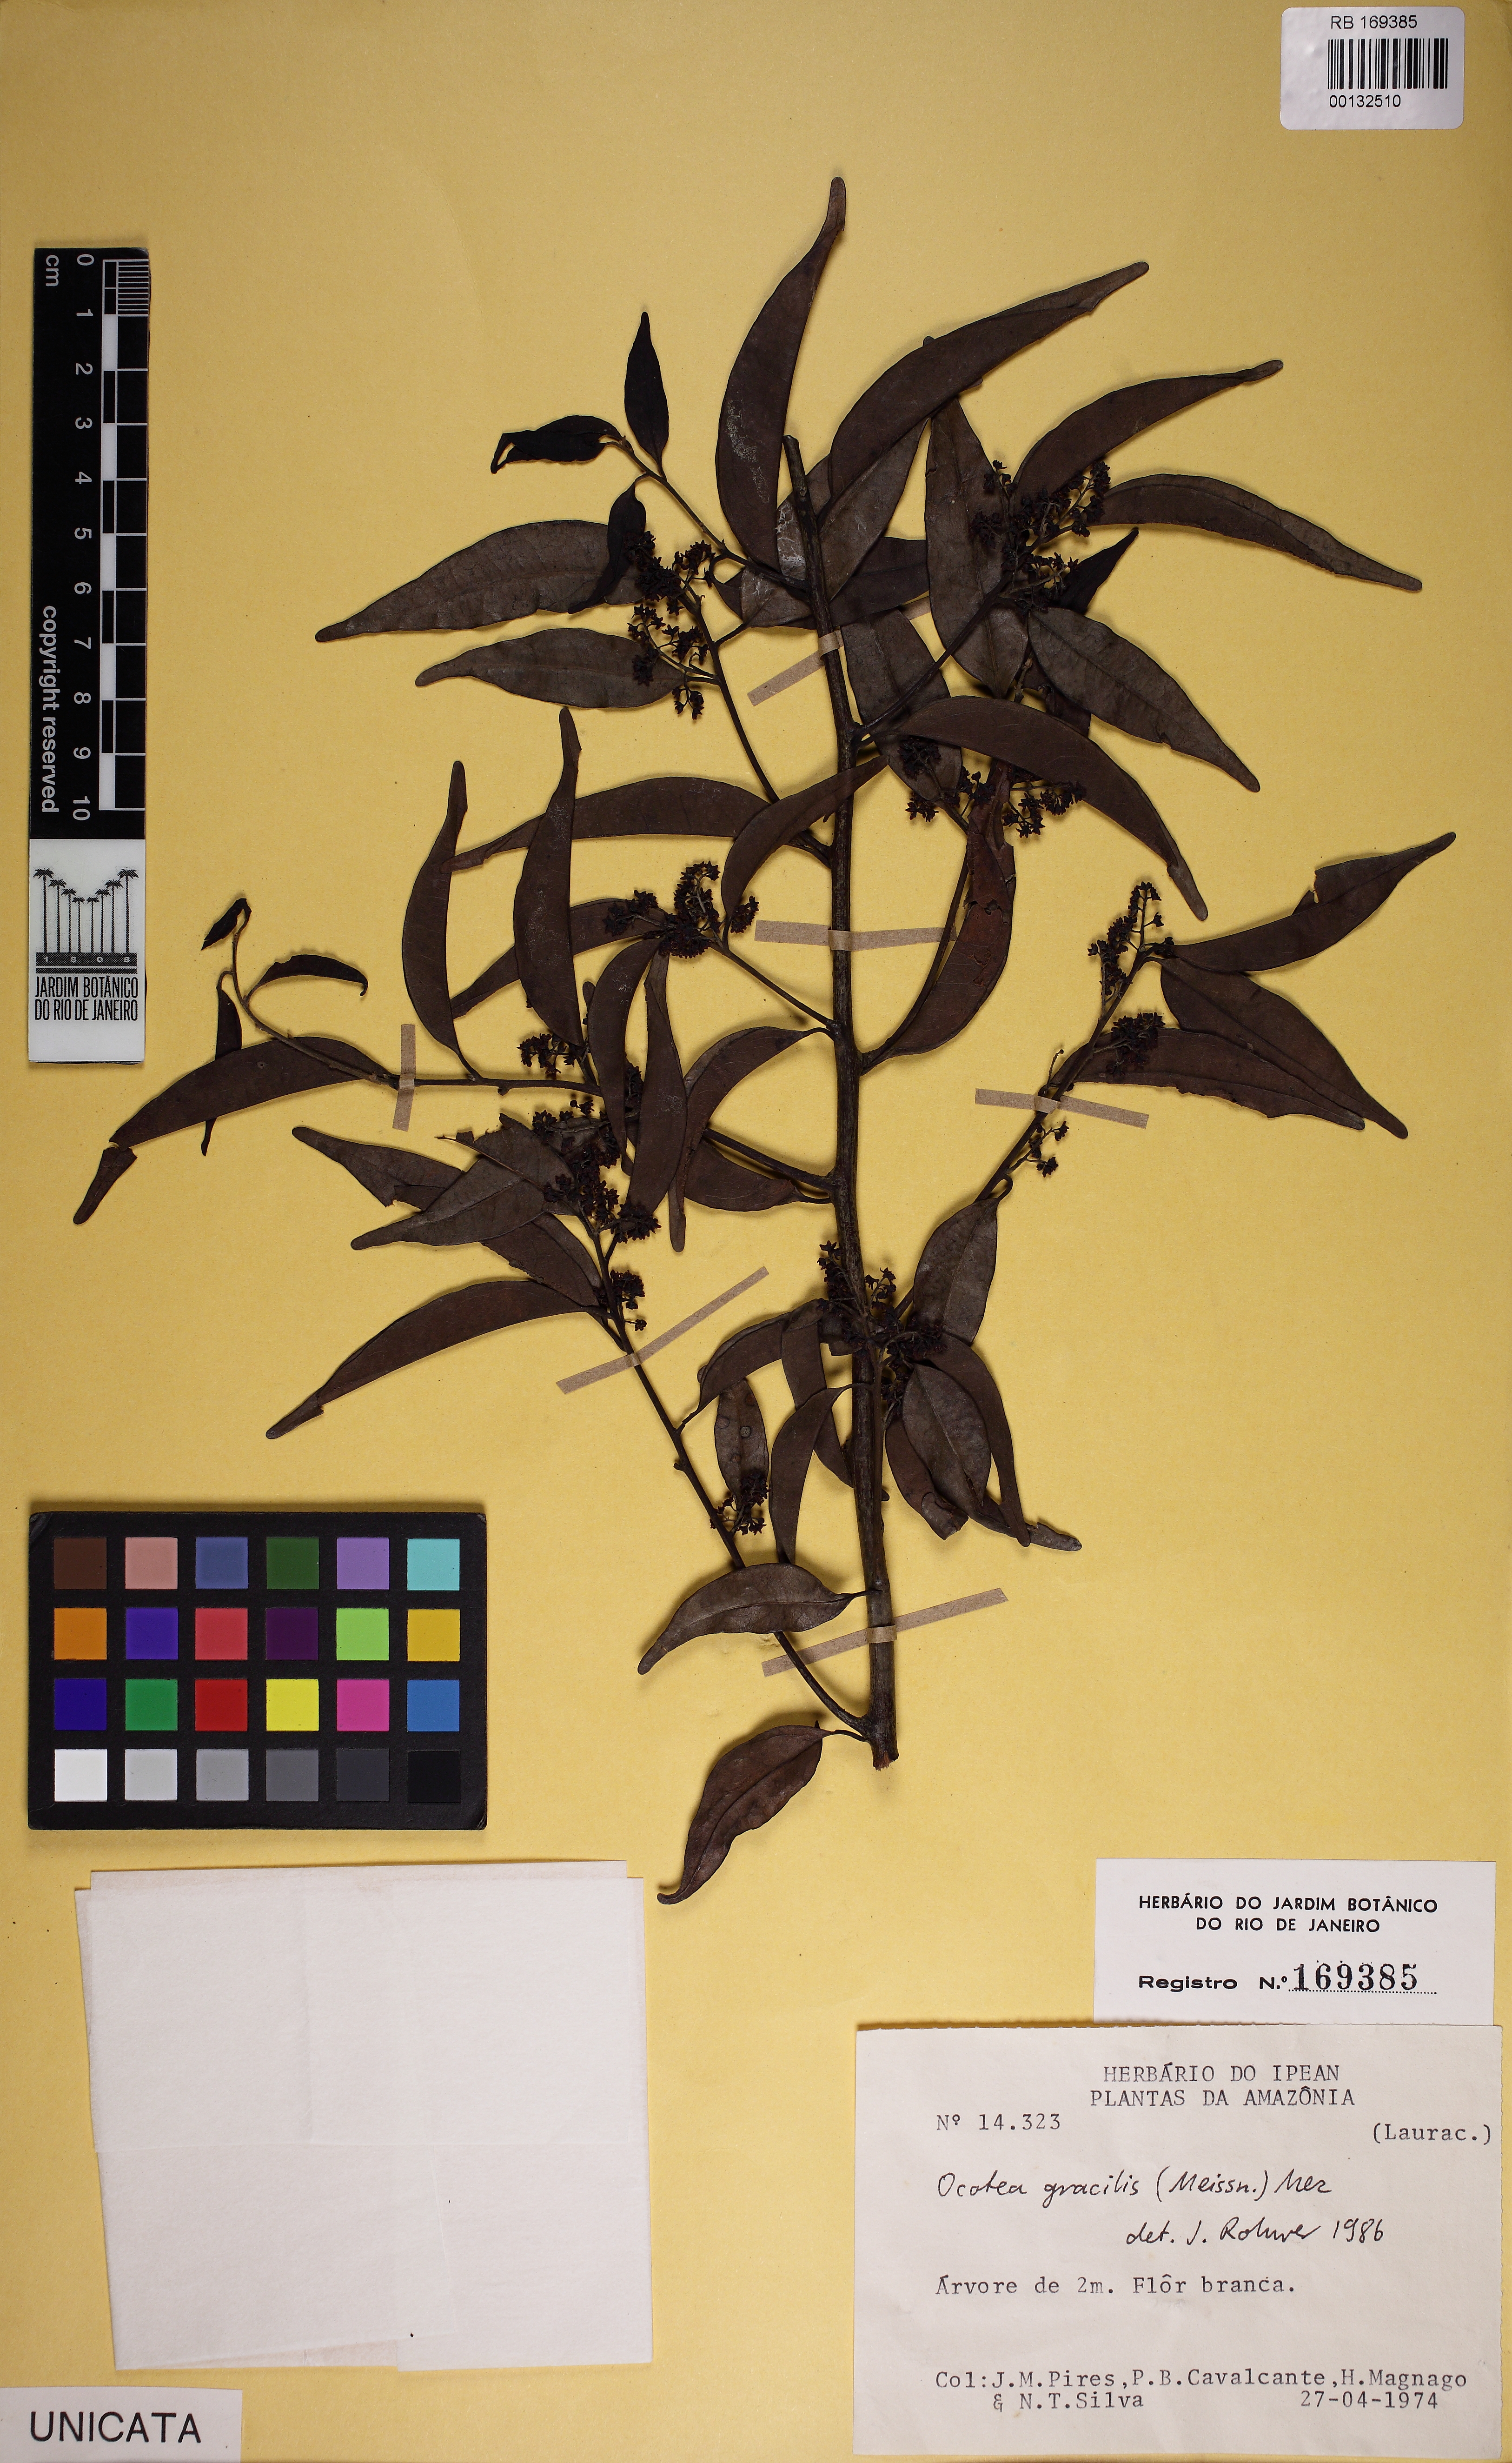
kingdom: Plantae
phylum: Tracheophyta
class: Magnoliopsida
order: Laurales
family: Lauraceae
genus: Ocotea
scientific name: Ocotea gracilis
